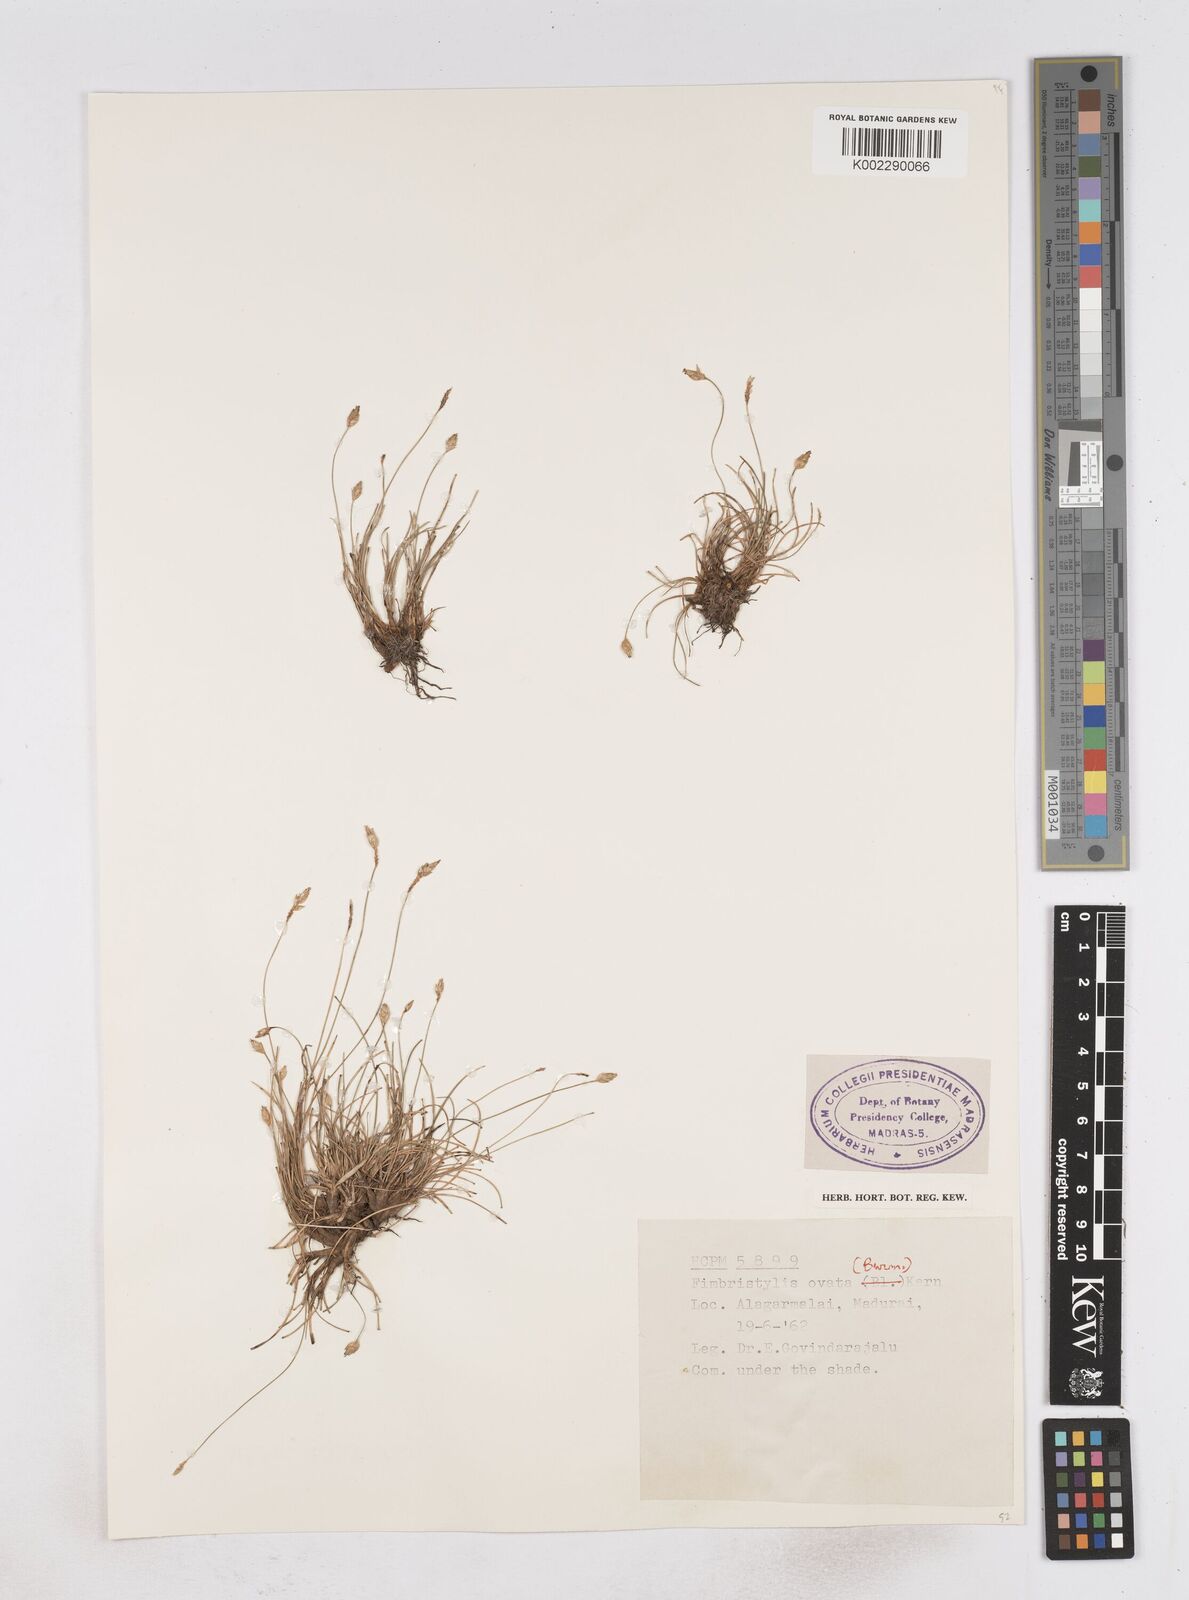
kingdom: Plantae
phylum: Tracheophyta
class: Liliopsida
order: Poales
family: Cyperaceae
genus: Abildgaardia
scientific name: Abildgaardia ovata
